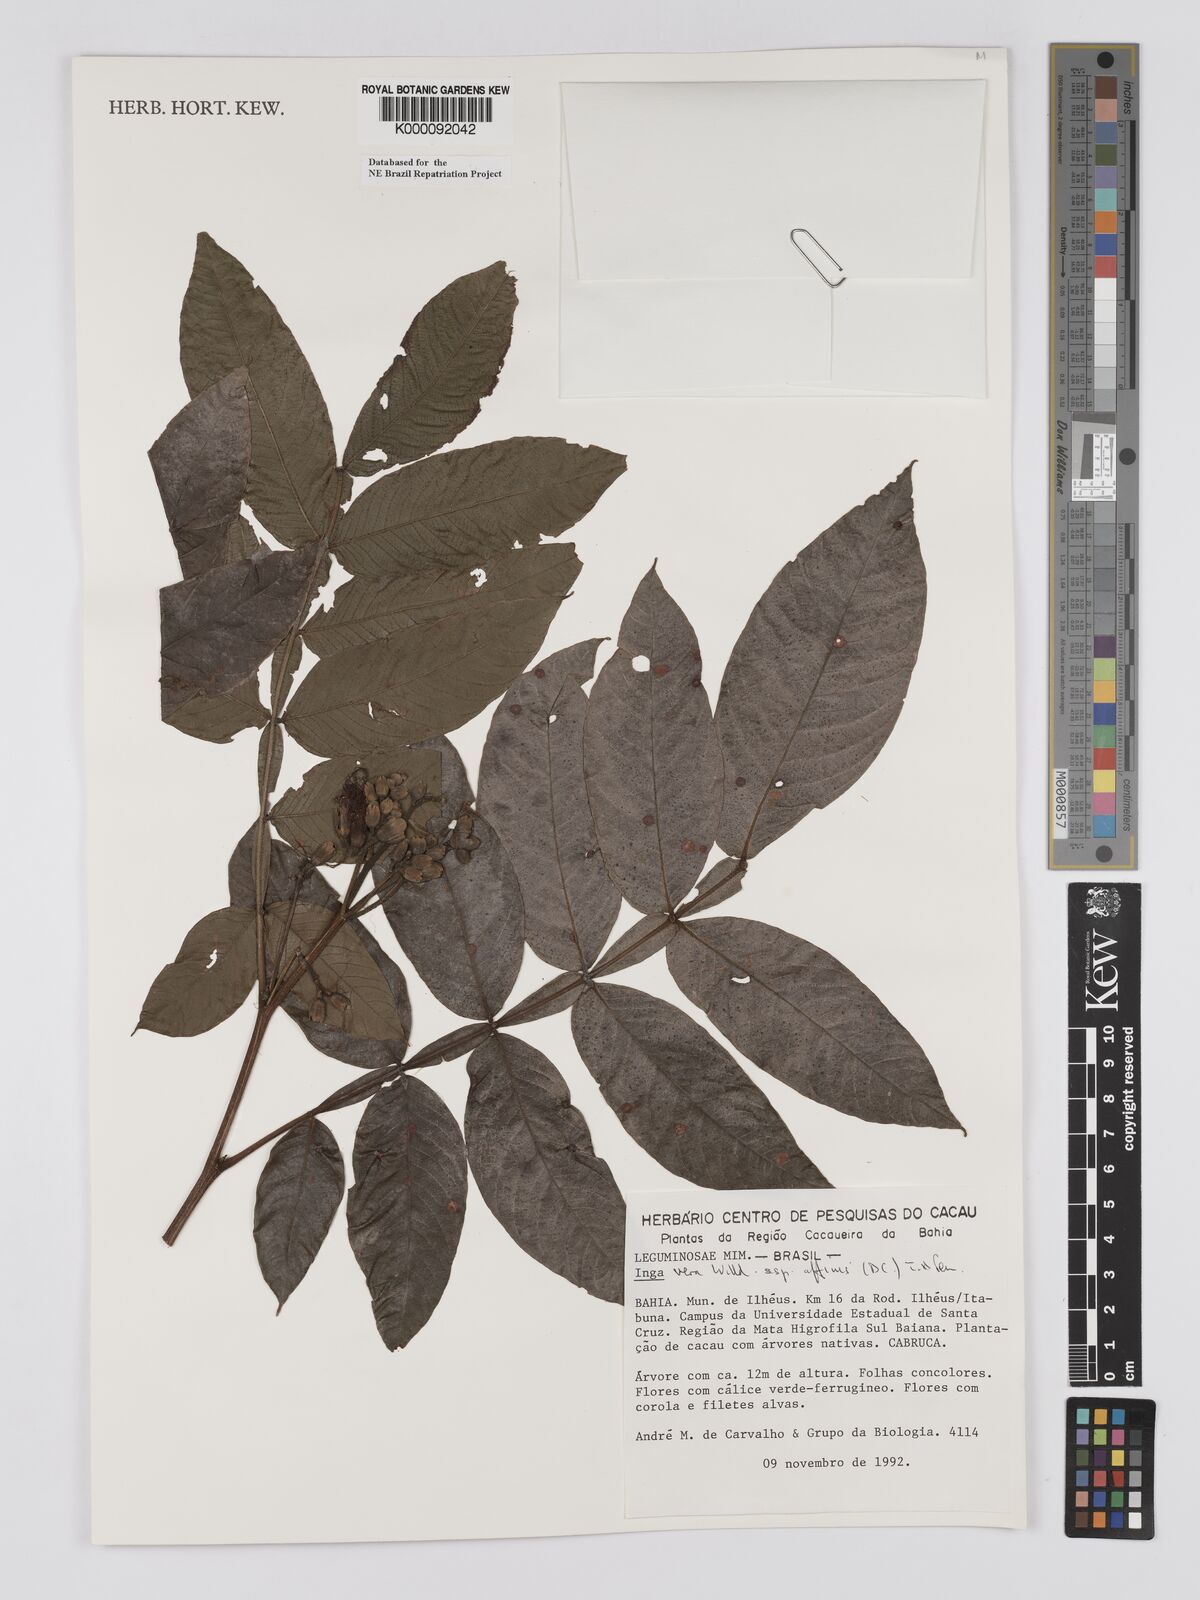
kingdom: Plantae
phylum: Tracheophyta
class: Magnoliopsida
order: Fabales
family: Fabaceae
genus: Inga
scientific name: Inga affinis
